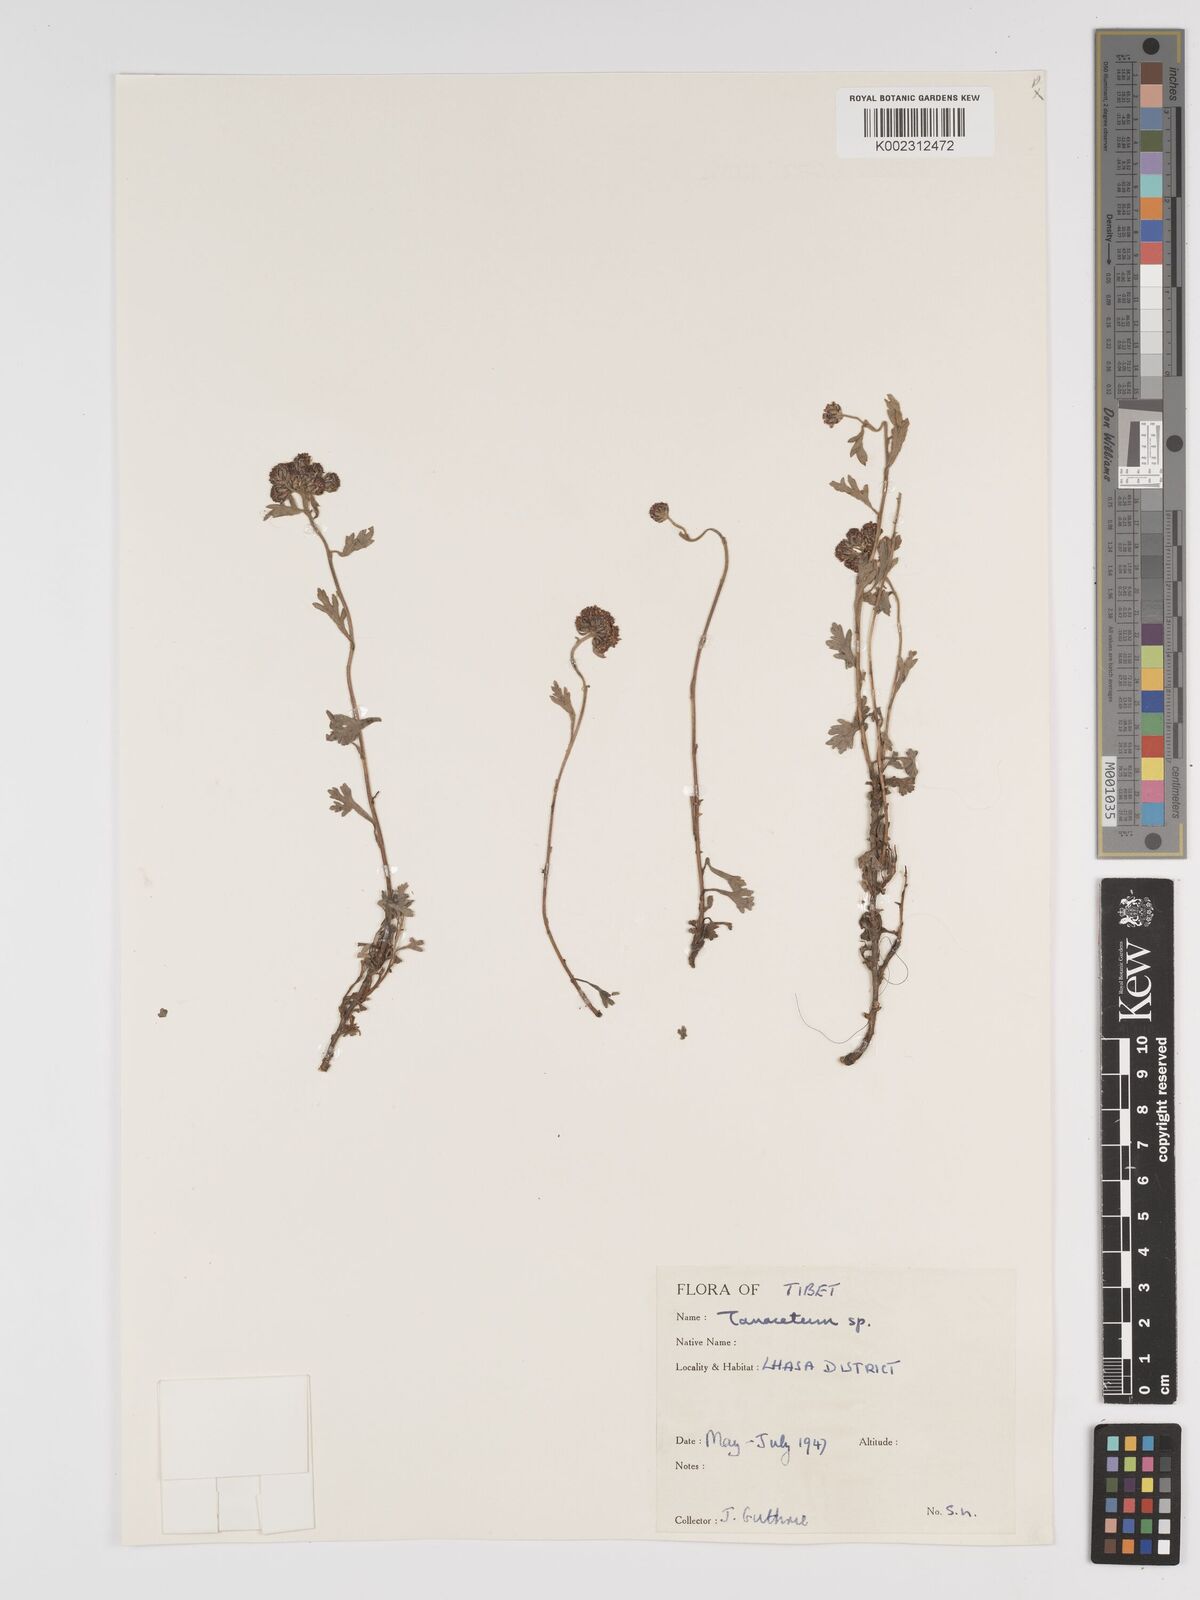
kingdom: Plantae
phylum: Tracheophyta
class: Magnoliopsida
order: Asterales
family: Asteraceae
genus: Tanacetum
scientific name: Tanacetum
